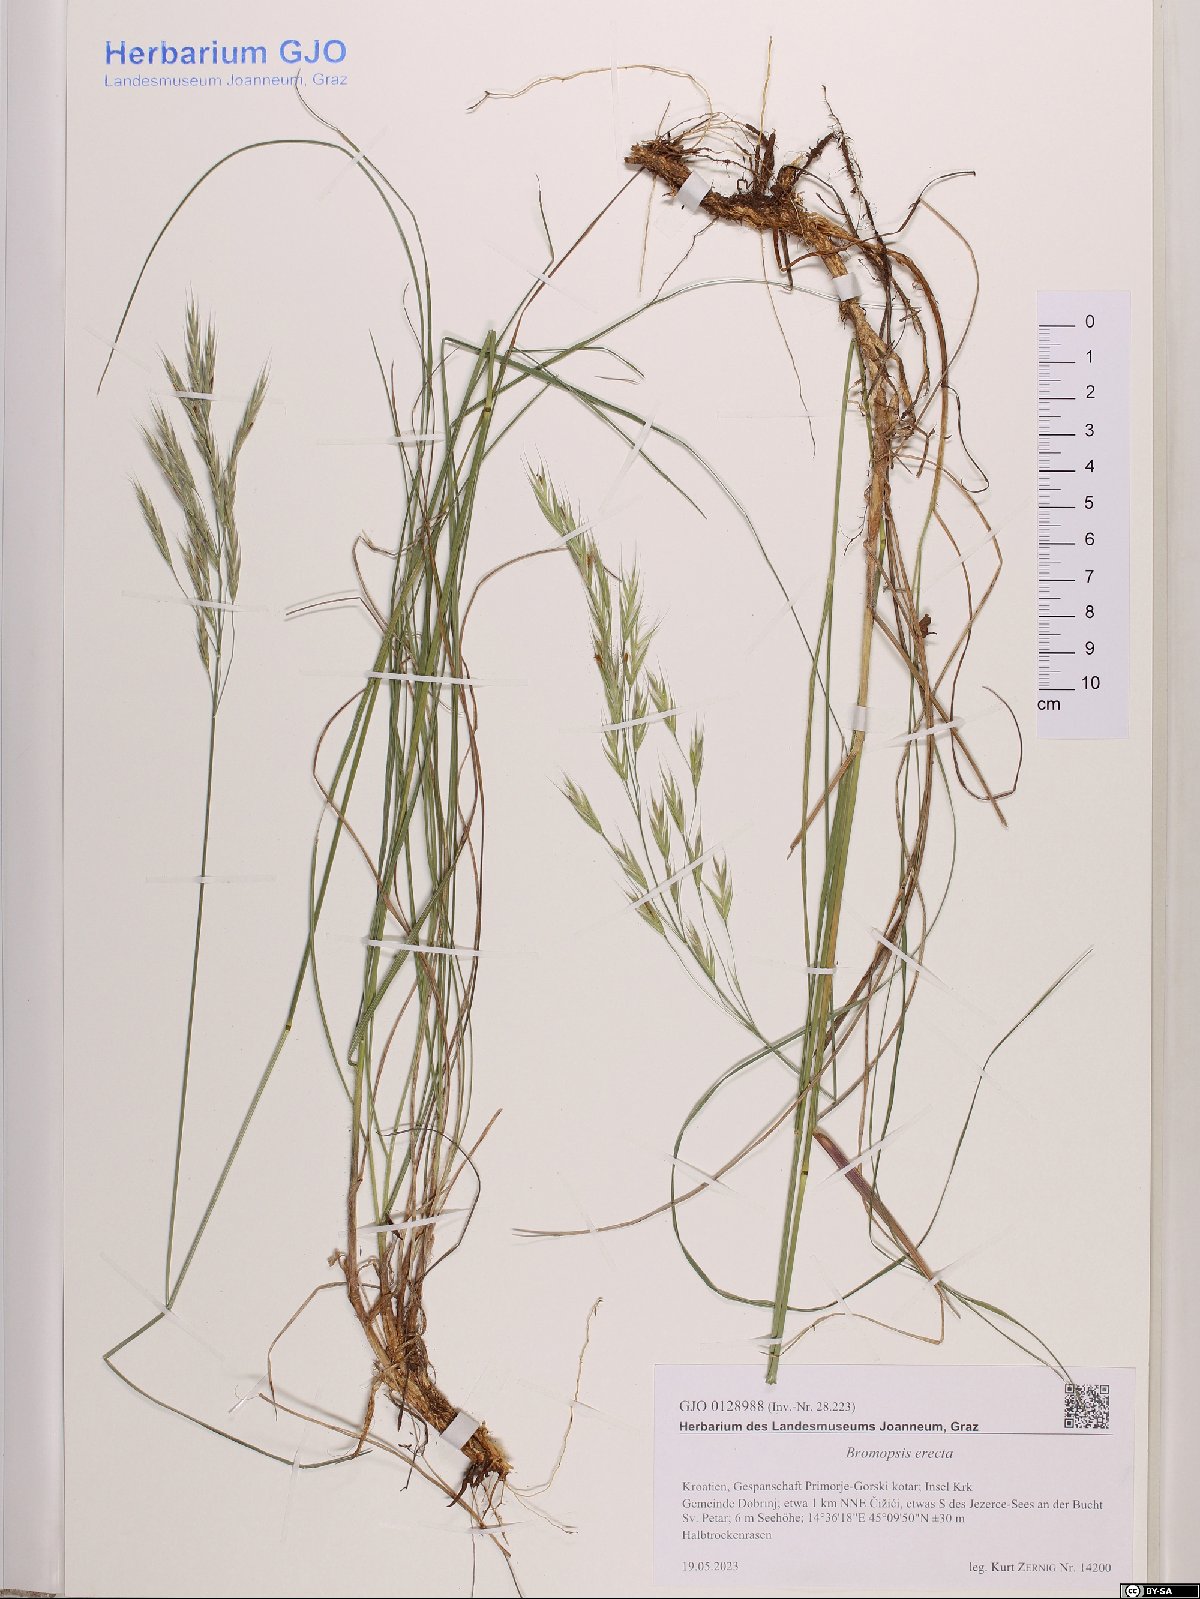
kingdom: Plantae
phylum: Tracheophyta
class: Liliopsida
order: Poales
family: Poaceae
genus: Bromus
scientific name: Bromus erectus
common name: Erect brome
